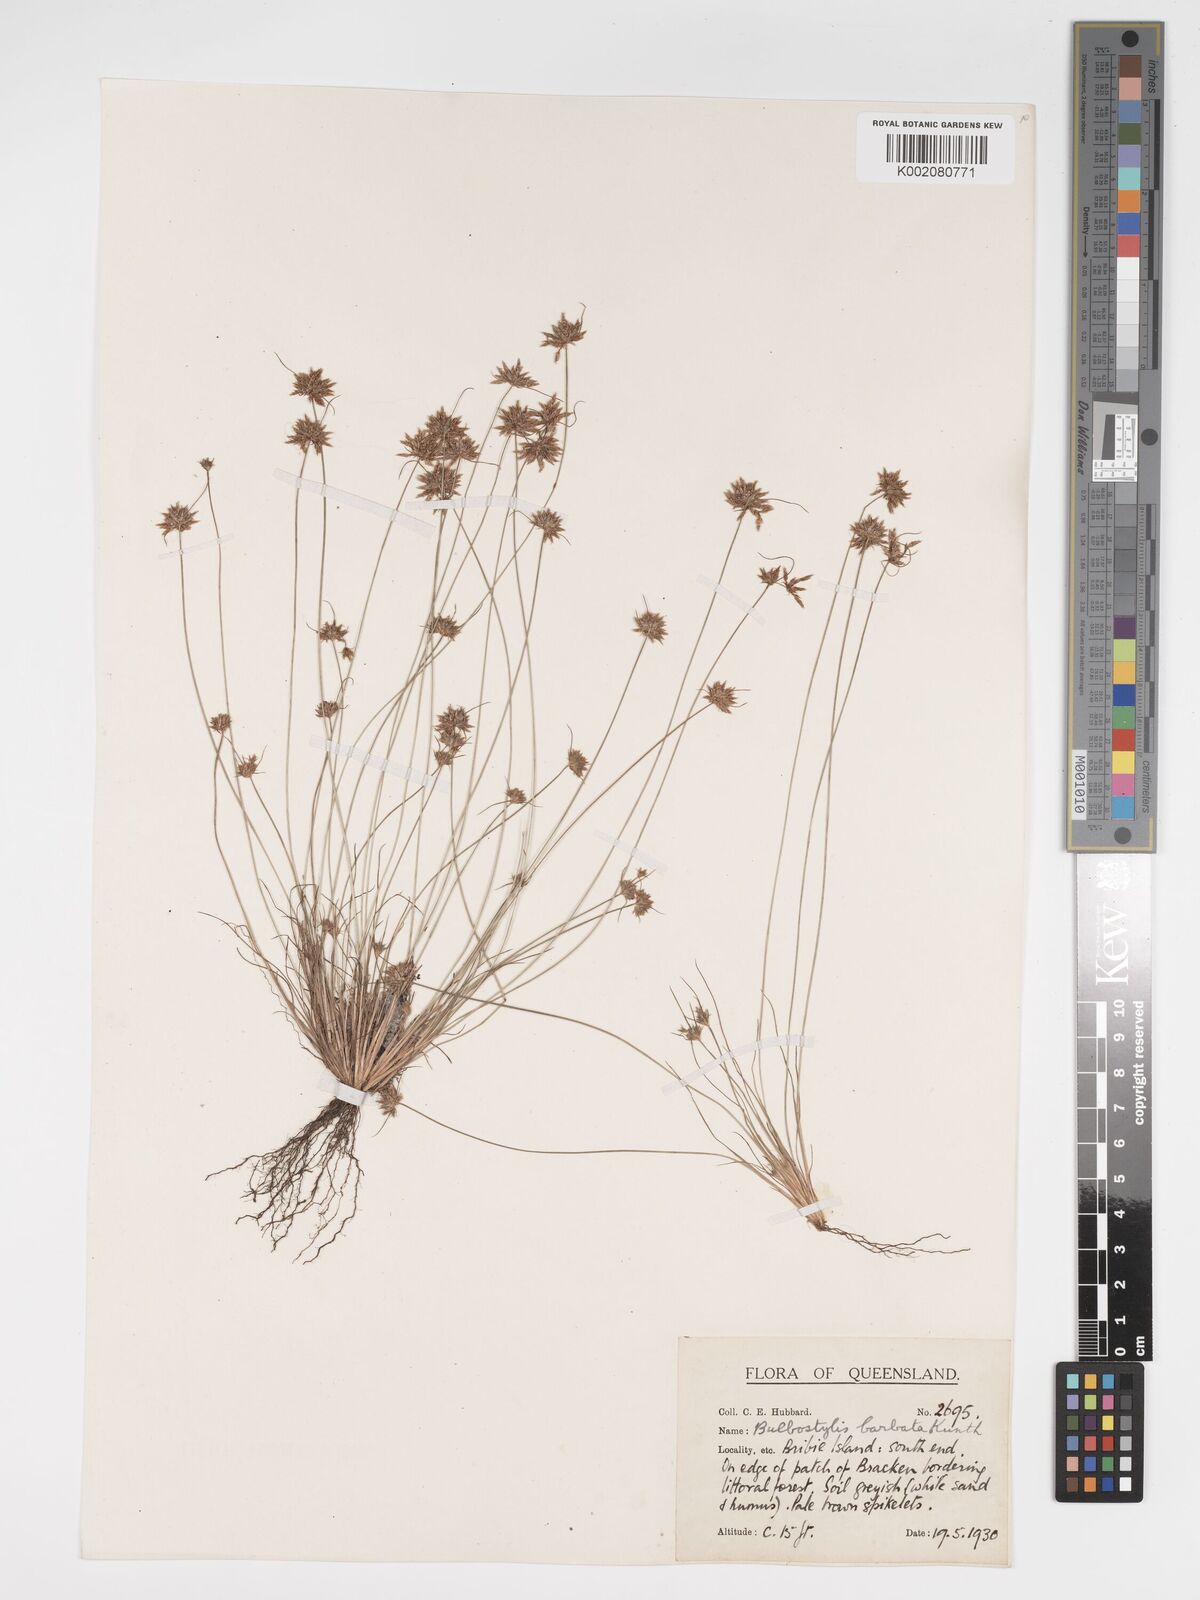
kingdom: Plantae
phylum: Tracheophyta
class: Liliopsida
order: Poales
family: Cyperaceae
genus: Bulbostylis
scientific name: Bulbostylis barbata
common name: Watergrass
